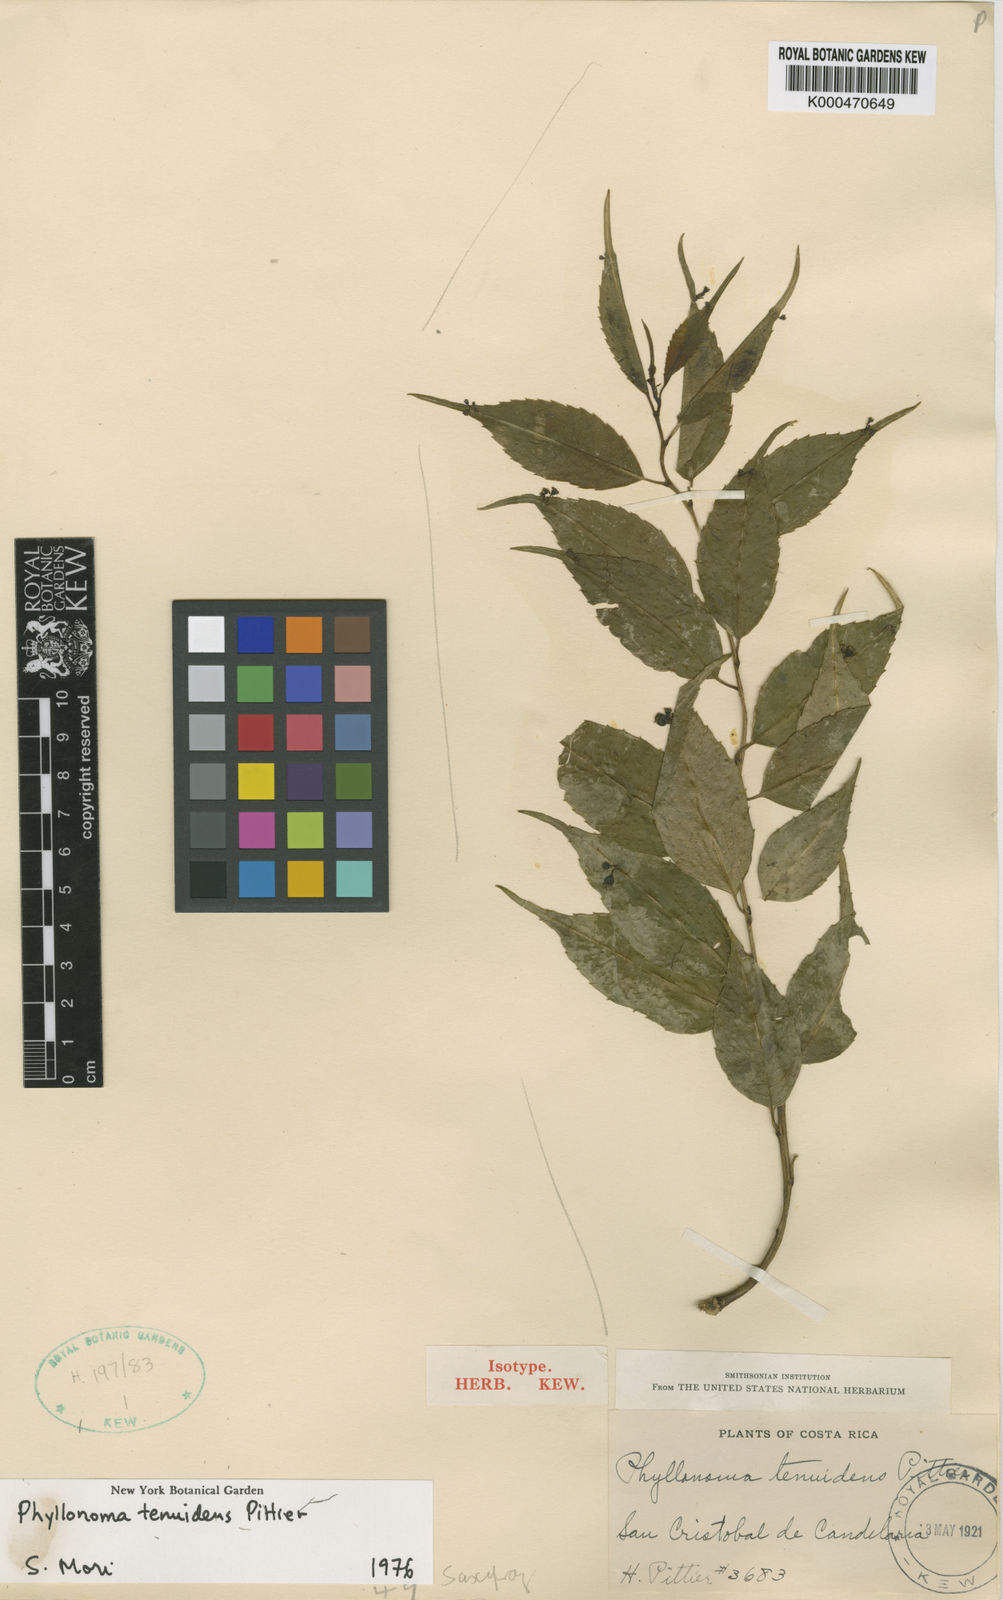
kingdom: Plantae
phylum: Tracheophyta
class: Magnoliopsida
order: Aquifoliales
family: Phyllonomaceae
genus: Phyllonoma
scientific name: Phyllonoma tenuidens
